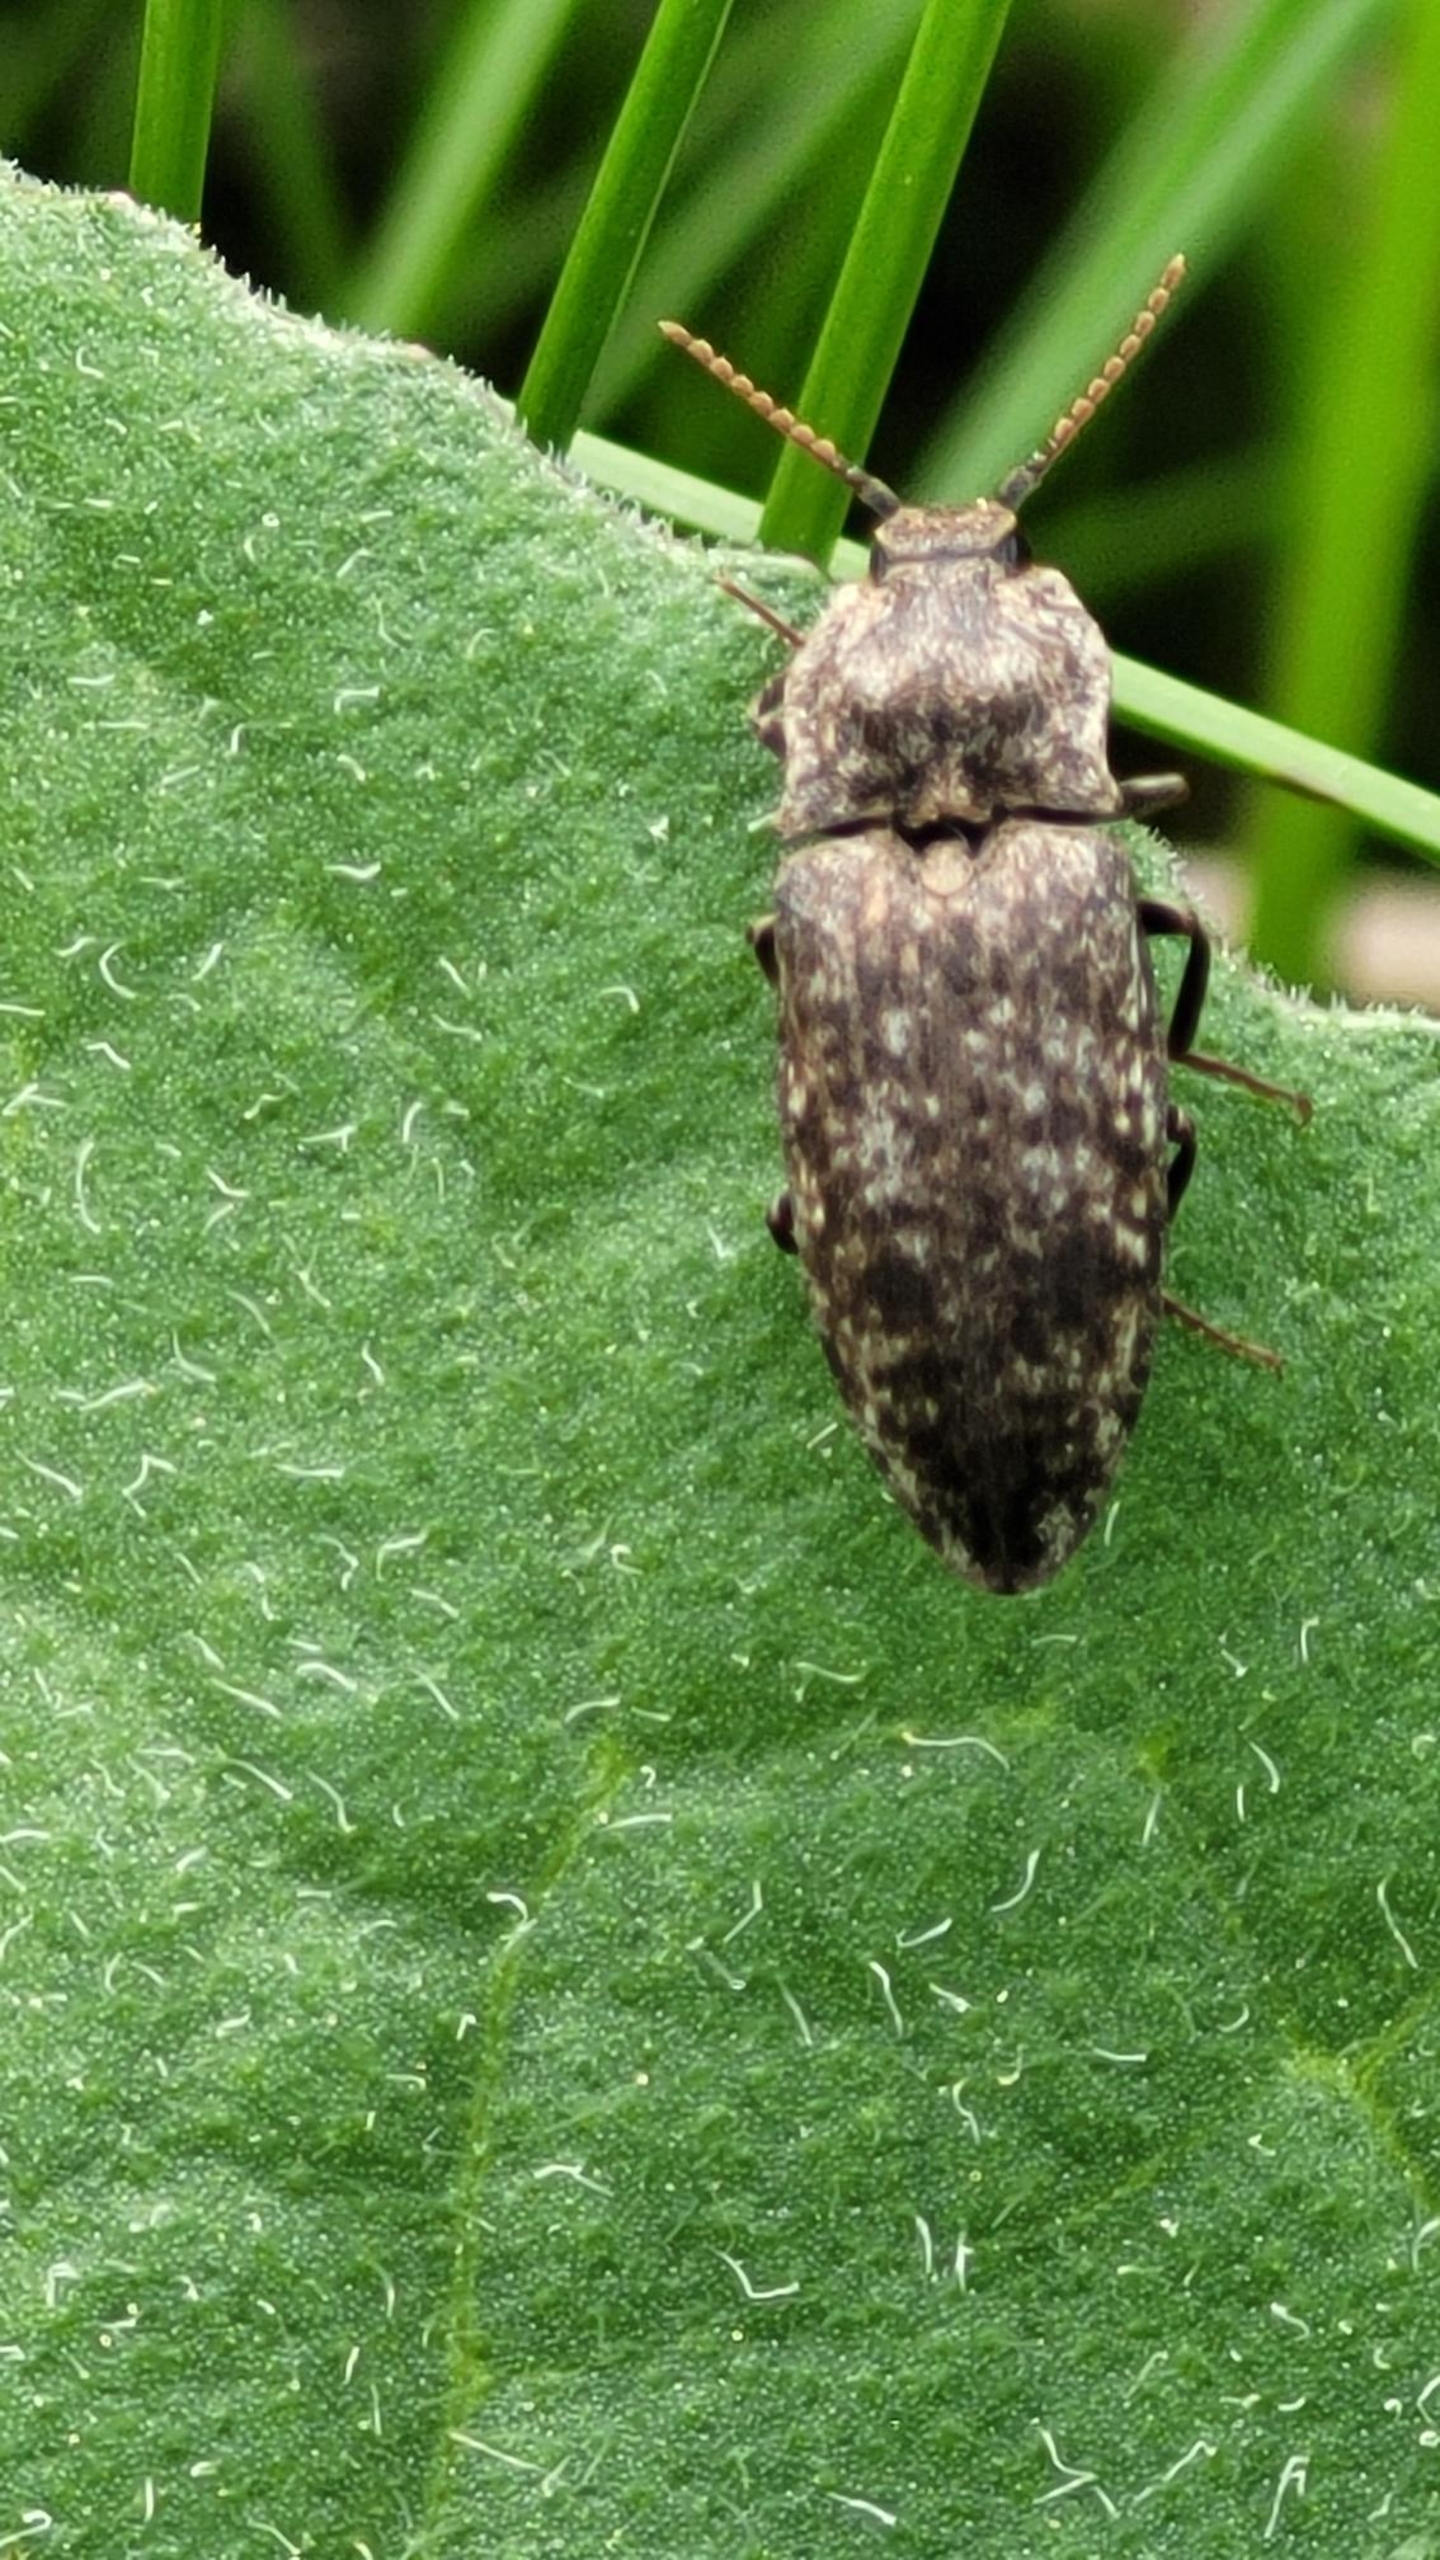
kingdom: Animalia
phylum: Arthropoda
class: Insecta
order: Coleoptera
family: Elateridae
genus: Agrypnus
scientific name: Agrypnus murinus
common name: Musegrå smælder
